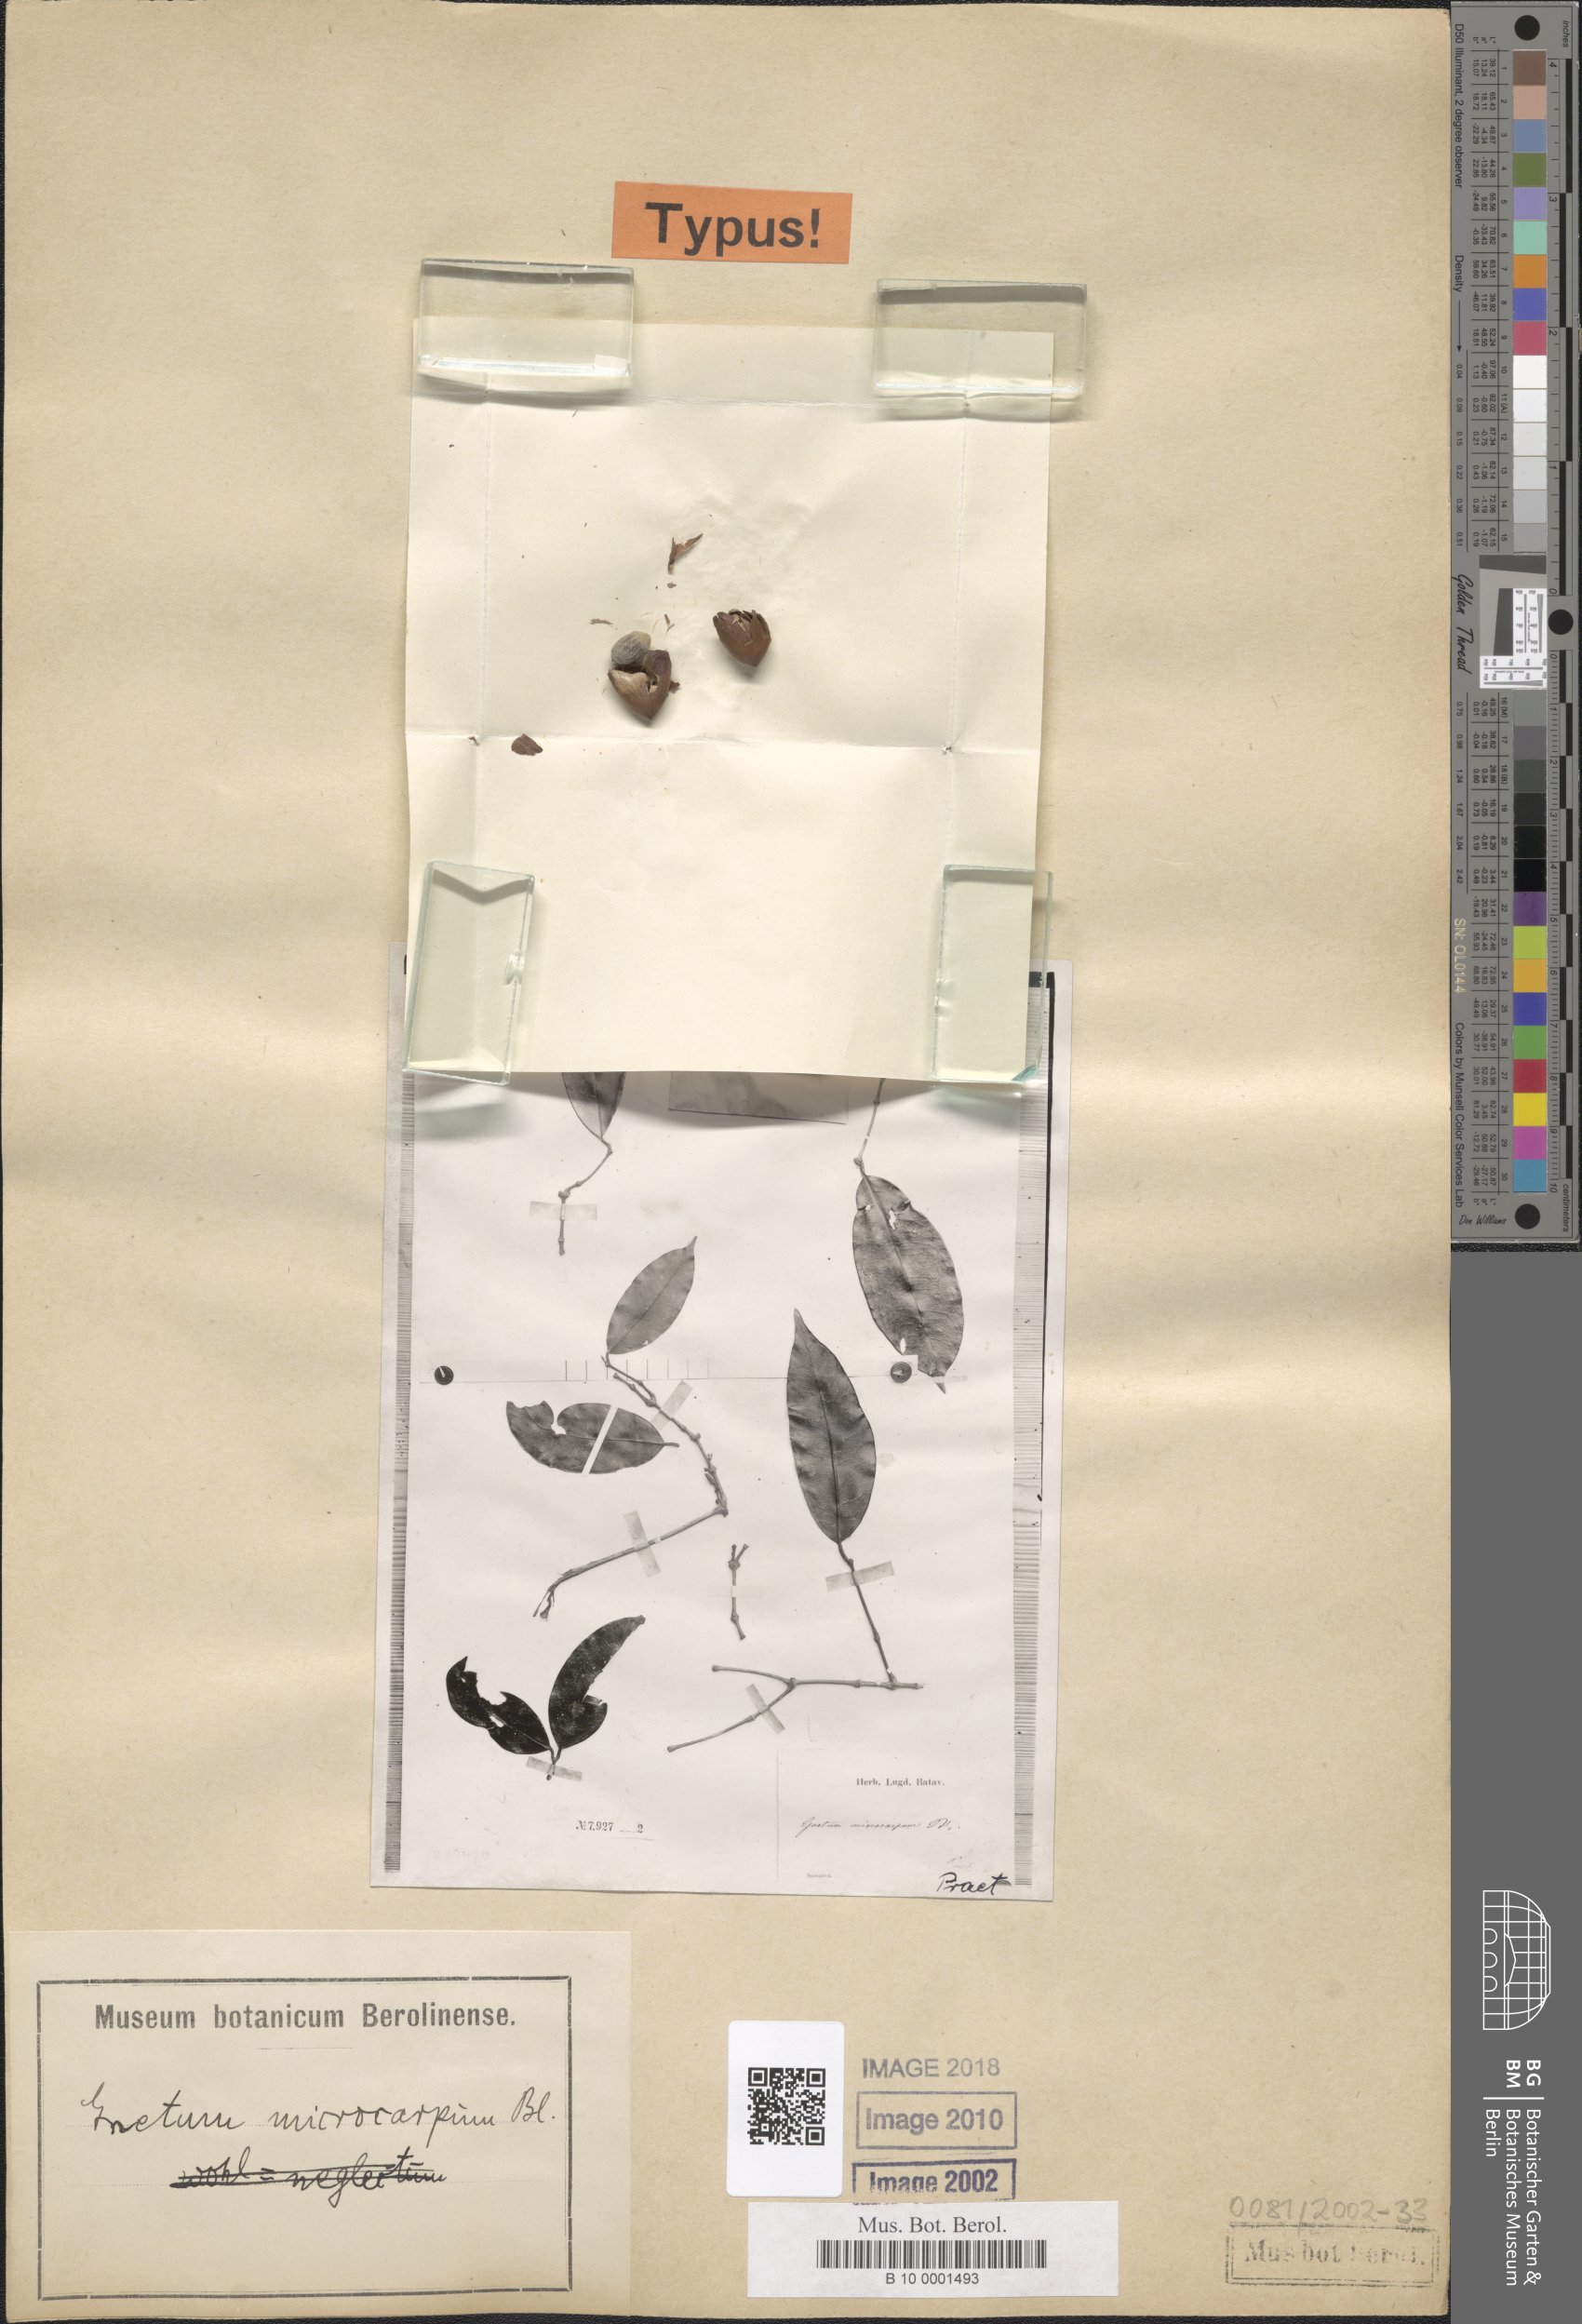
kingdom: Plantae
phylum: Tracheophyta
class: Gnetopsida
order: Gnetales
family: Gnetaceae
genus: Gnetum
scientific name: Gnetum microcarpum
